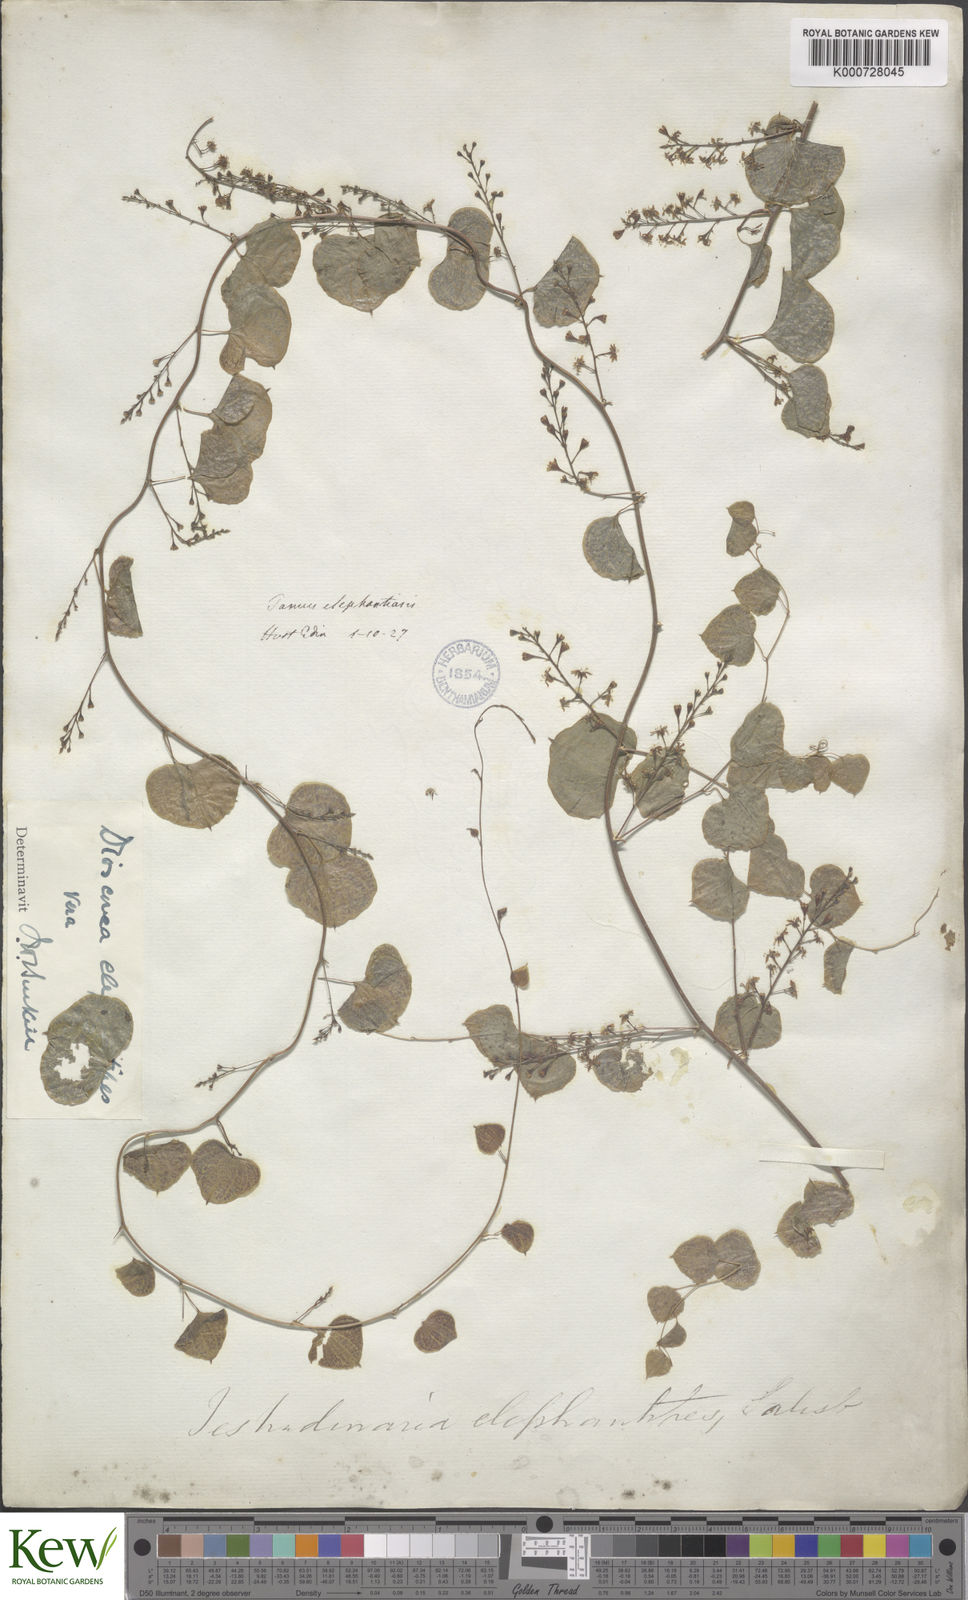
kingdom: Plantae
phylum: Tracheophyta
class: Liliopsida
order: Dioscoreales
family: Dioscoreaceae
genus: Dioscorea
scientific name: Dioscorea
